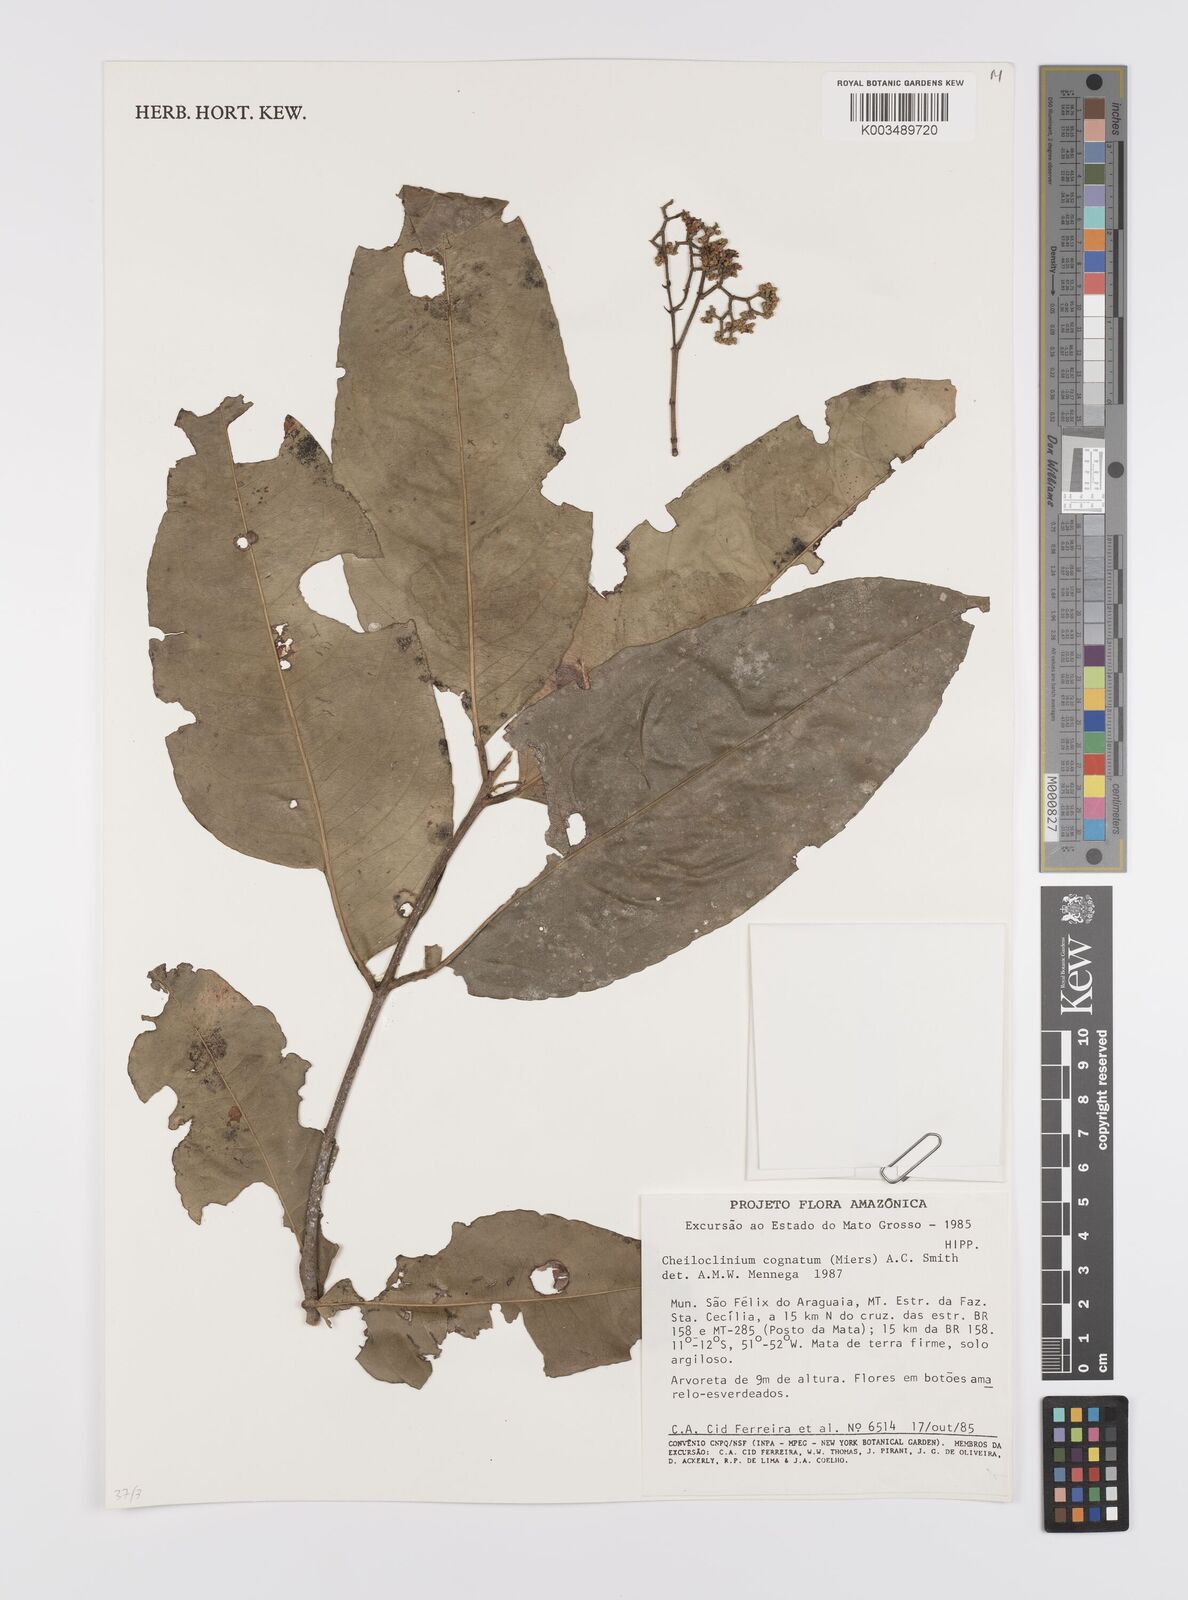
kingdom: Plantae
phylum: Tracheophyta
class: Magnoliopsida
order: Celastrales
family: Celastraceae
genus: Cheiloclinium
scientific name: Cheiloclinium cognatum
